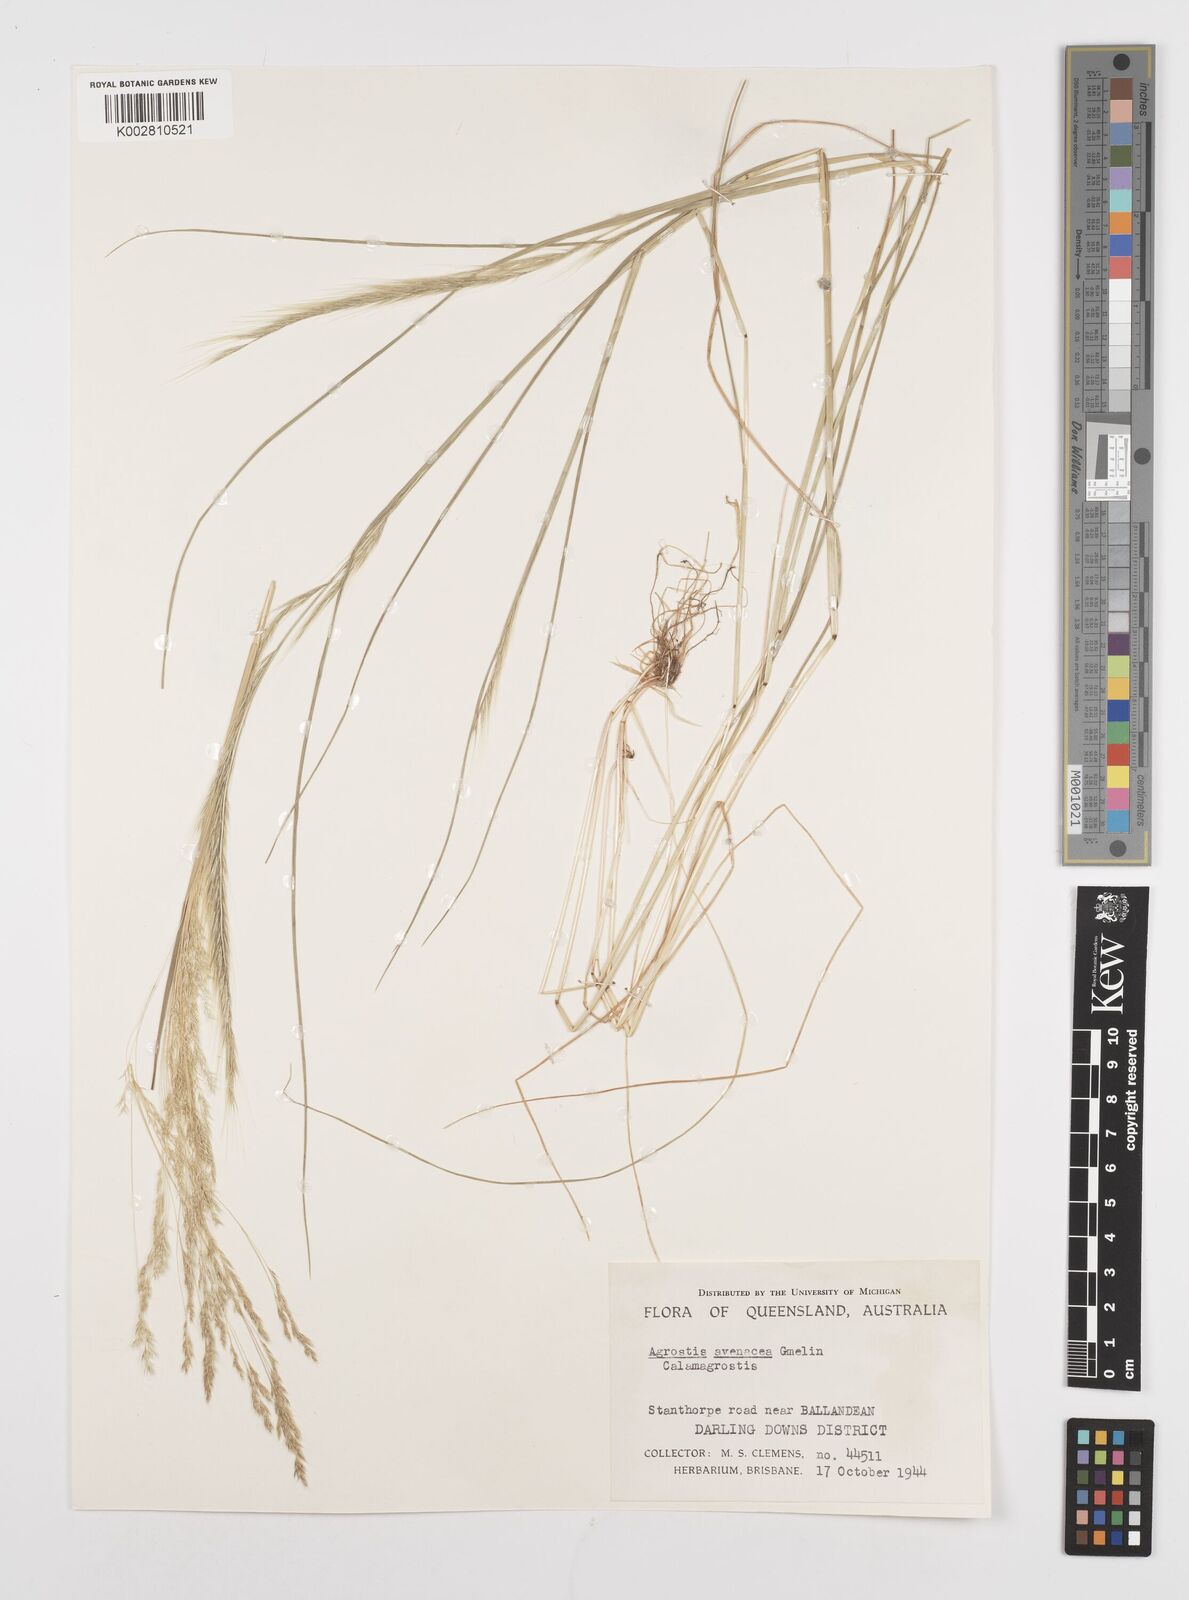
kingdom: Plantae
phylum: Tracheophyta
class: Liliopsida
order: Poales
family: Poaceae
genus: Festuca
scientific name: Festuca myuros
